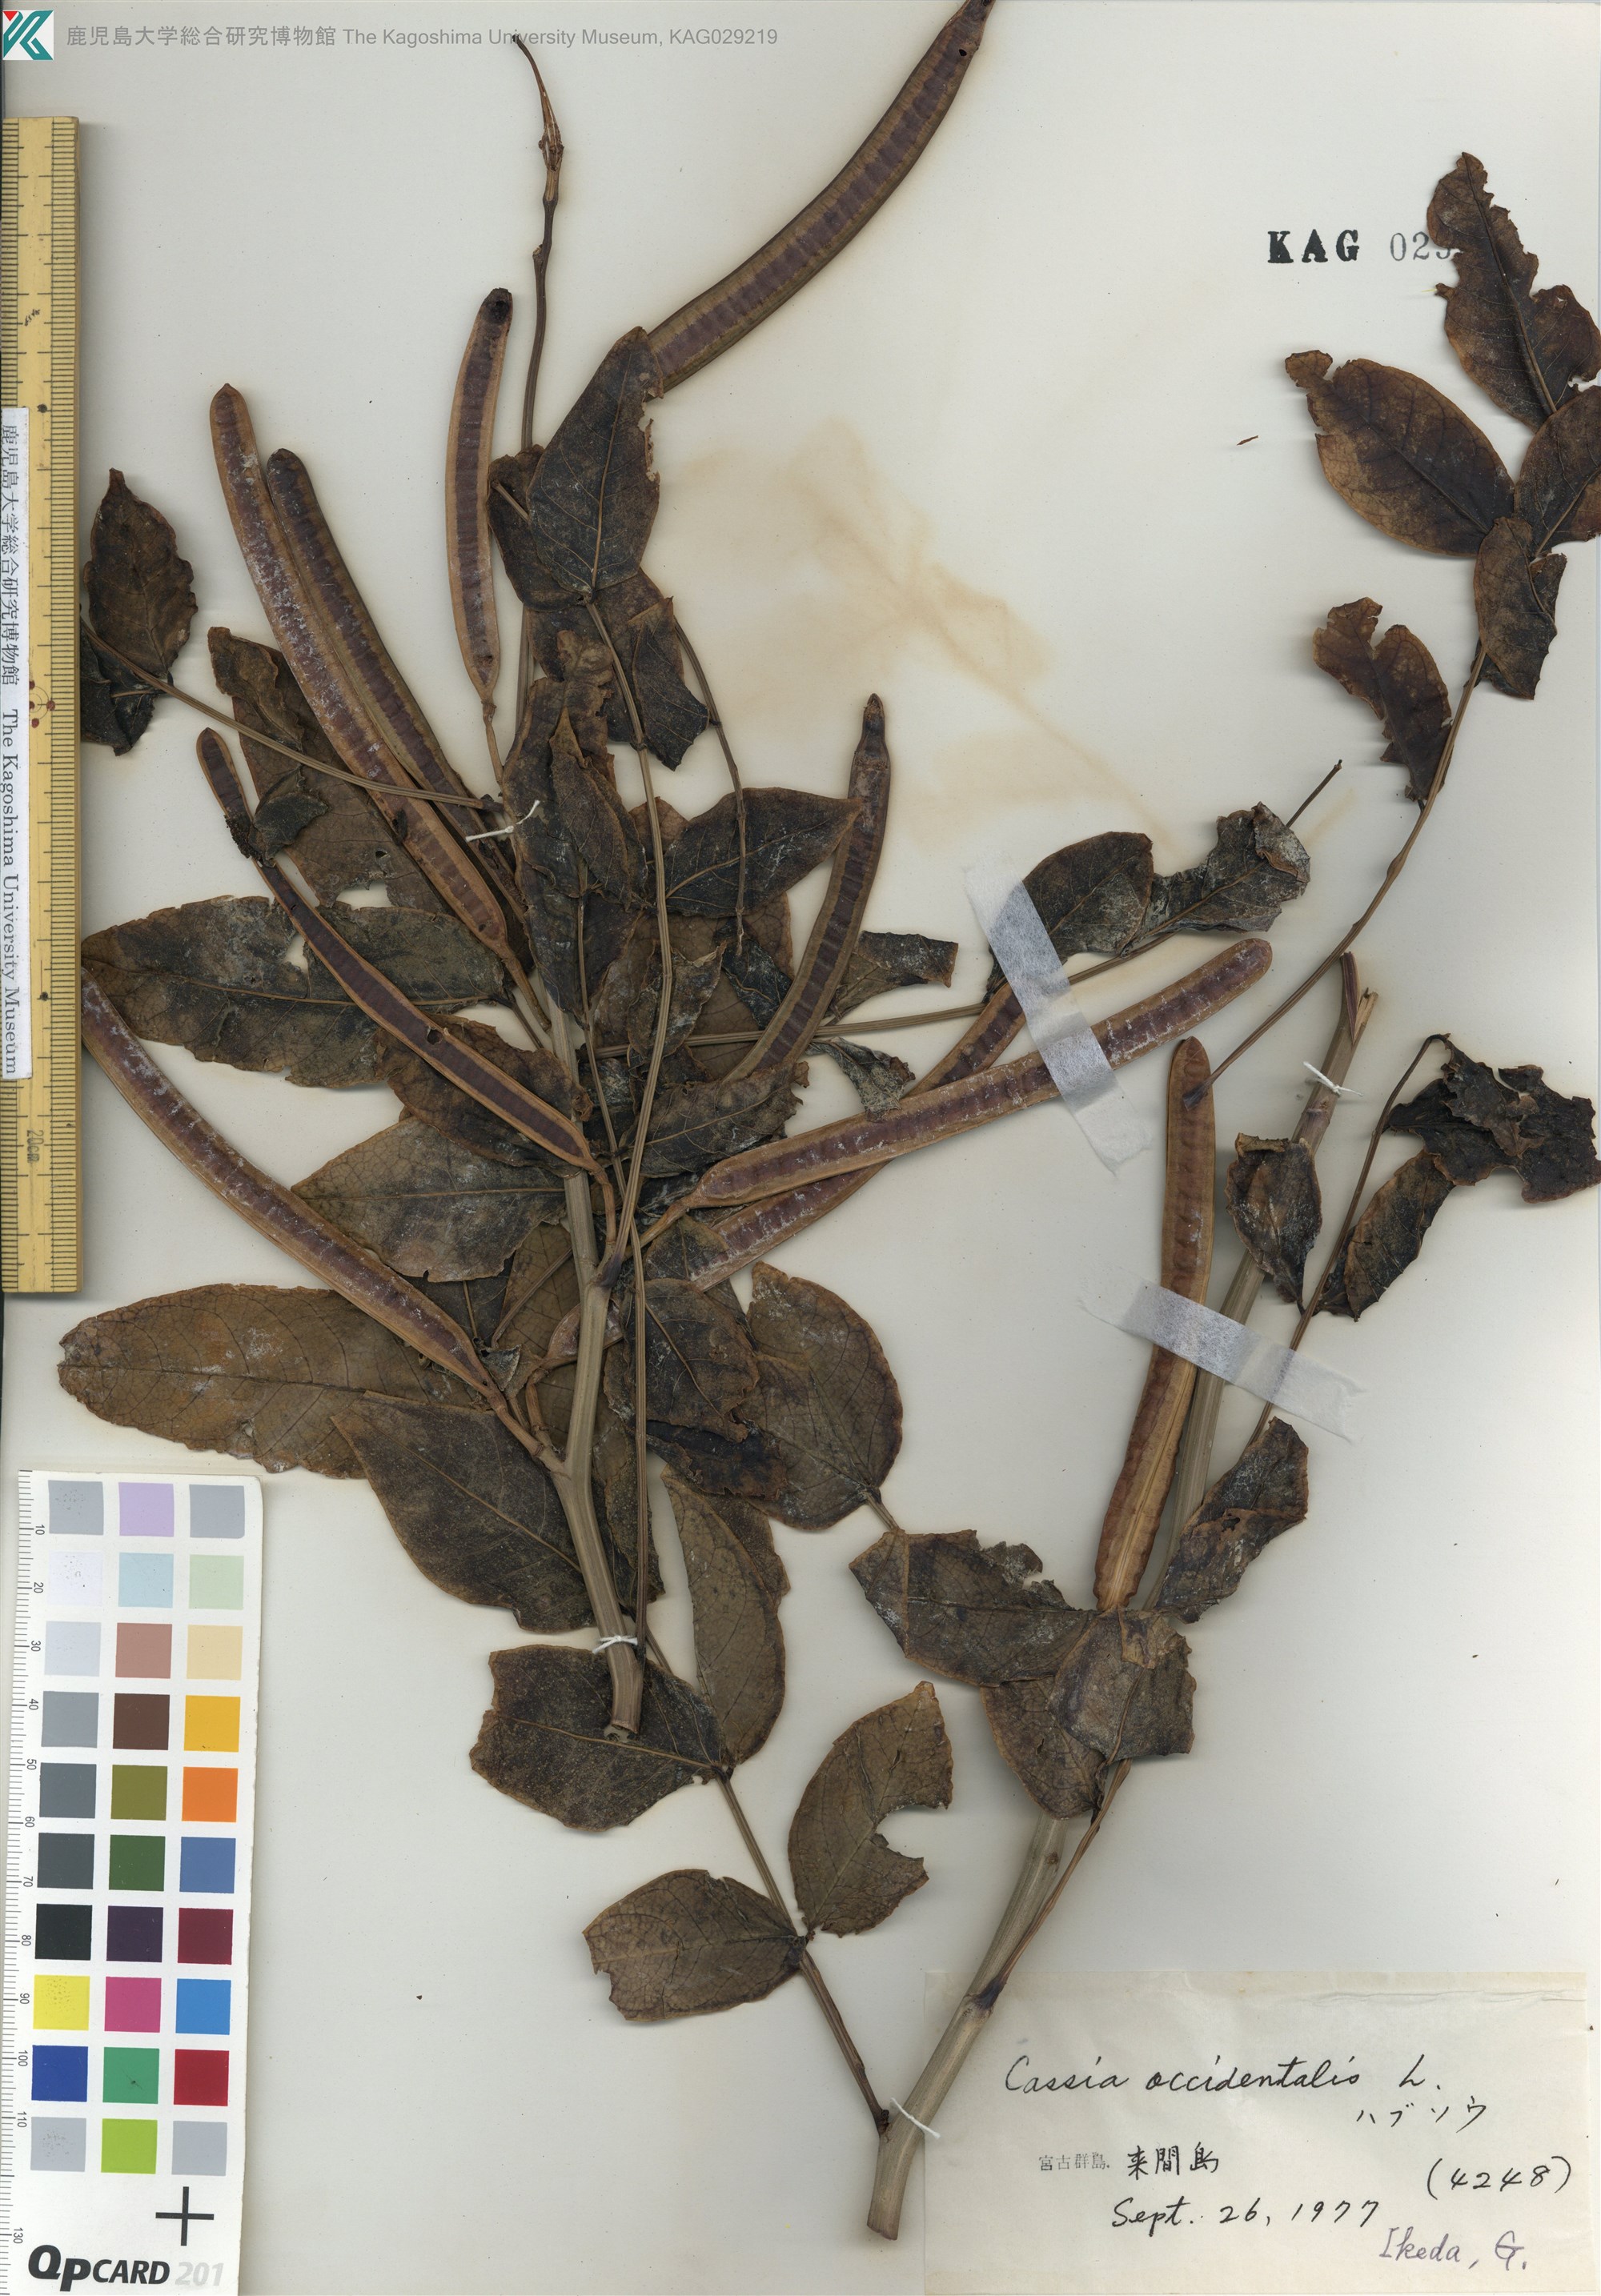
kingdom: Plantae
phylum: Tracheophyta
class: Magnoliopsida
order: Fabales
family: Fabaceae
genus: Senna
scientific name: Senna occidentalis
